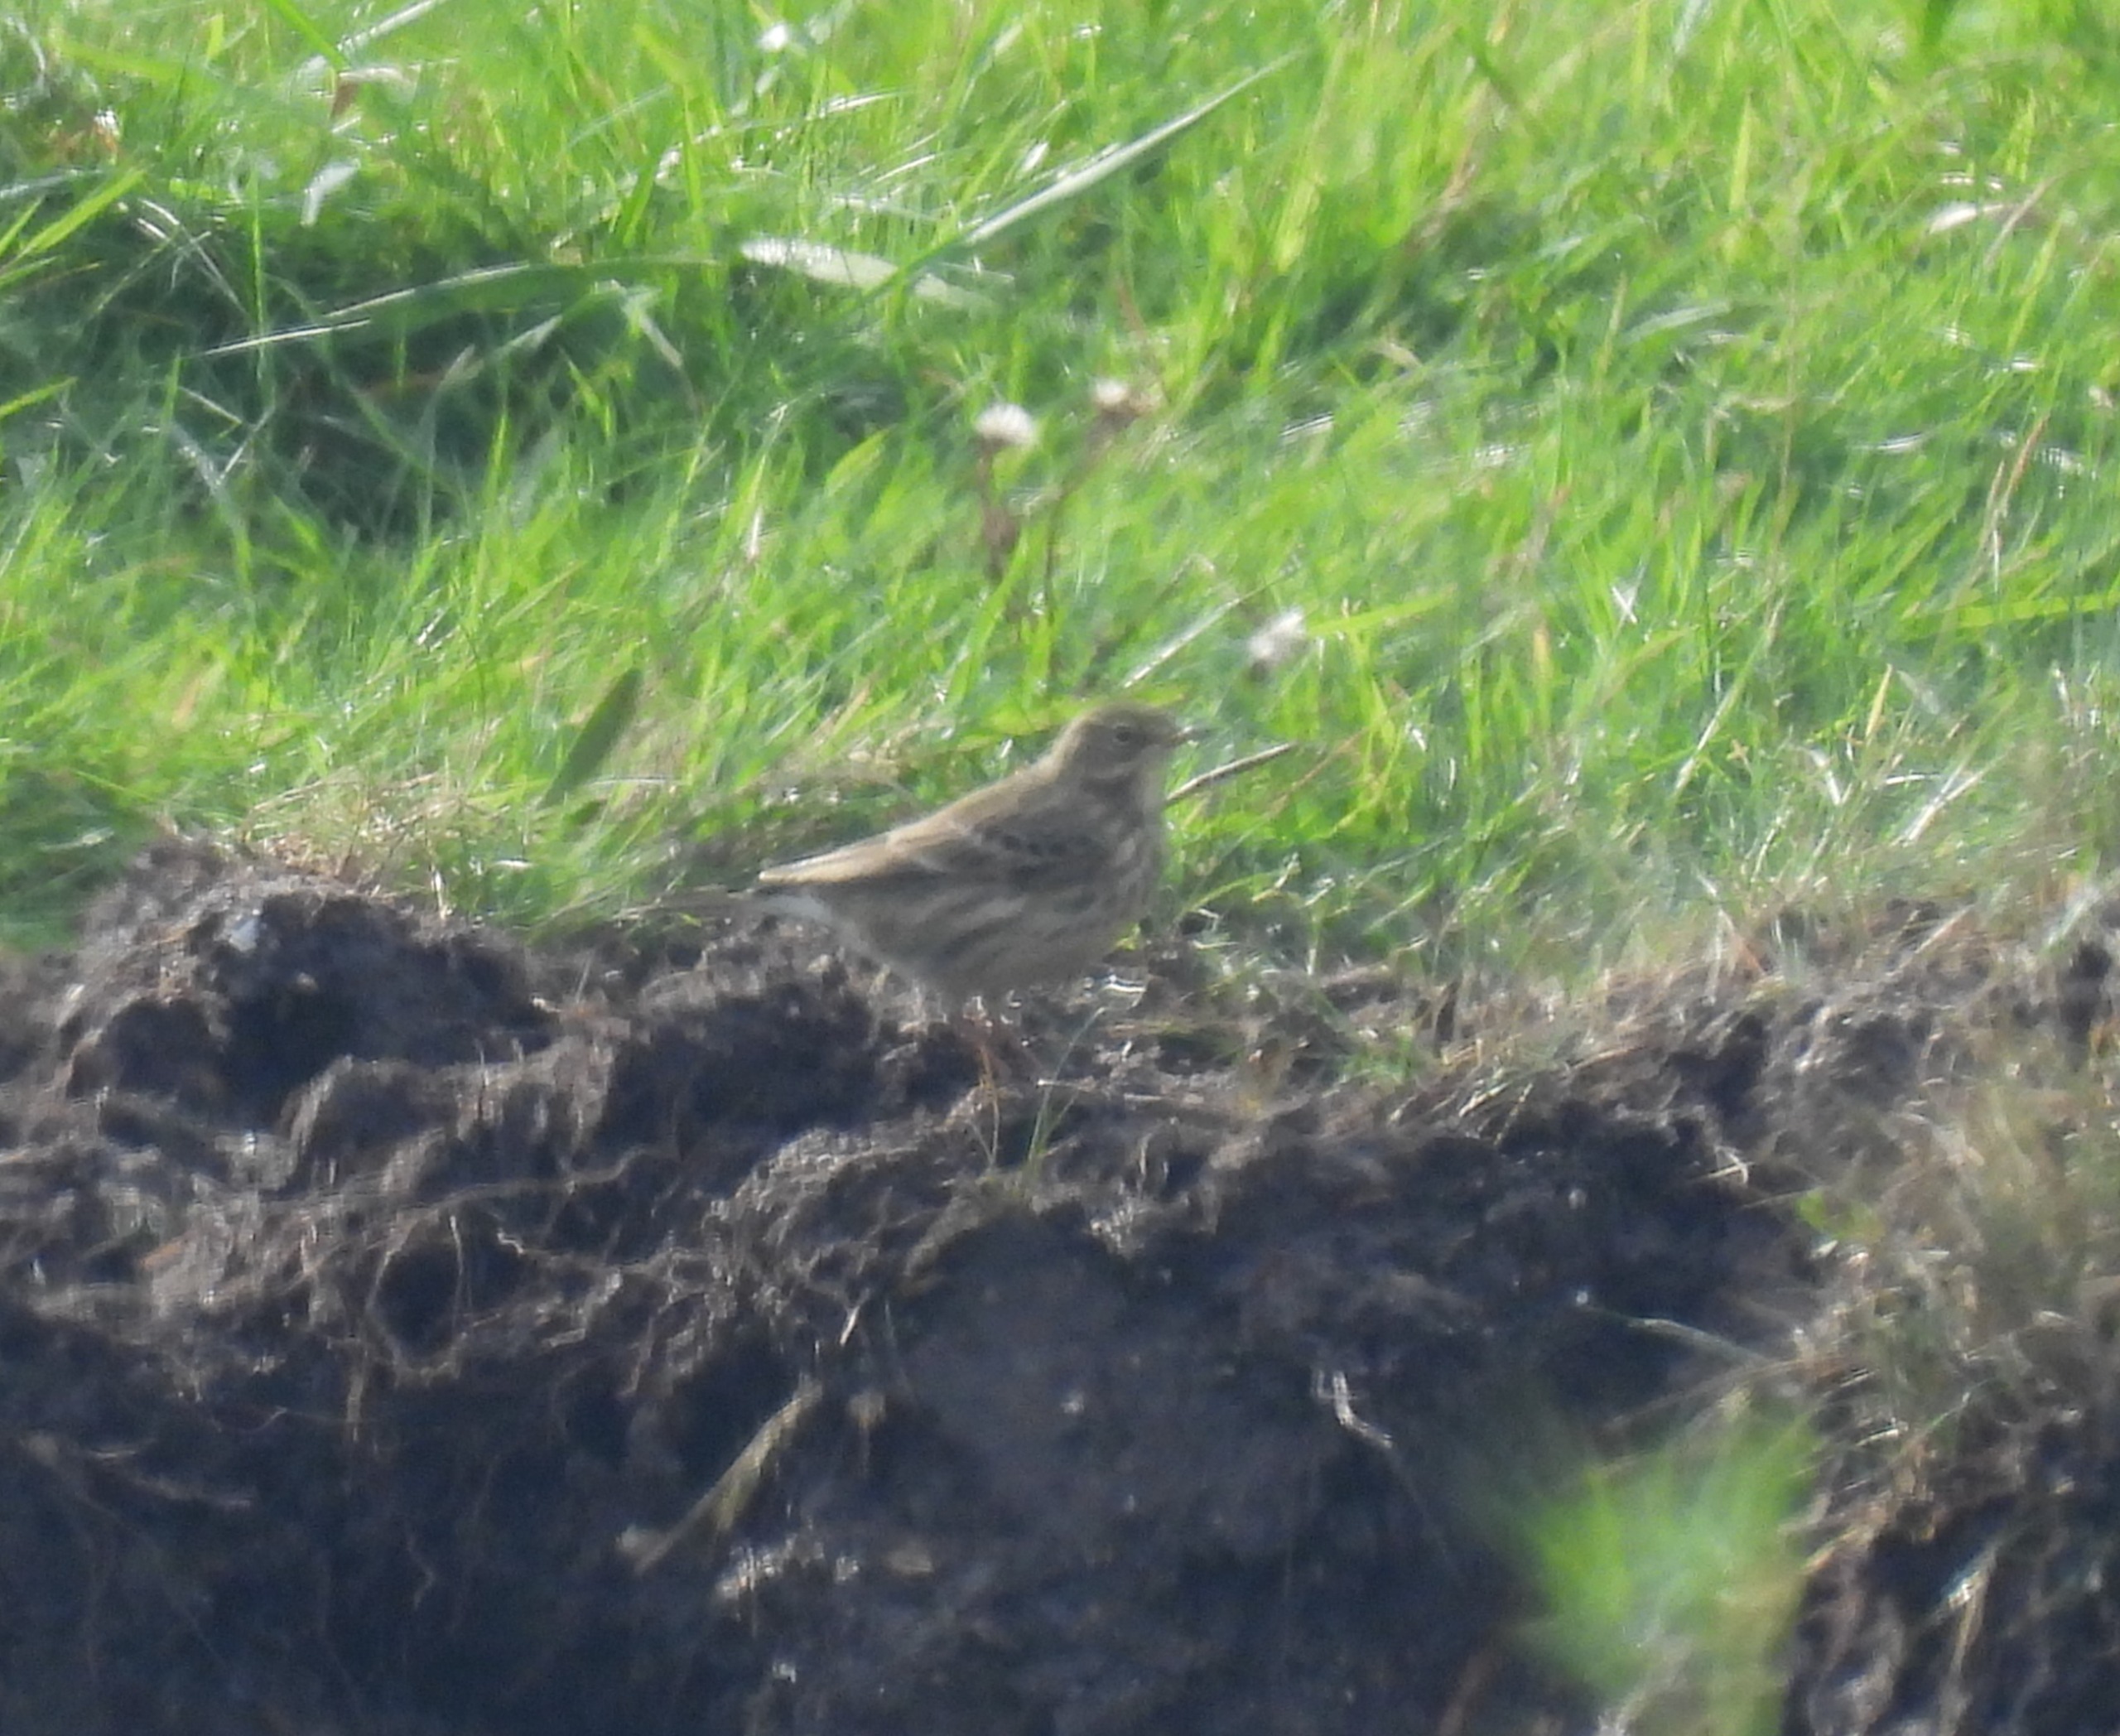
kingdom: Animalia
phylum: Chordata
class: Aves
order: Passeriformes
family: Motacillidae
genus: Anthus
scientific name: Anthus pratensis
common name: Engpiber
